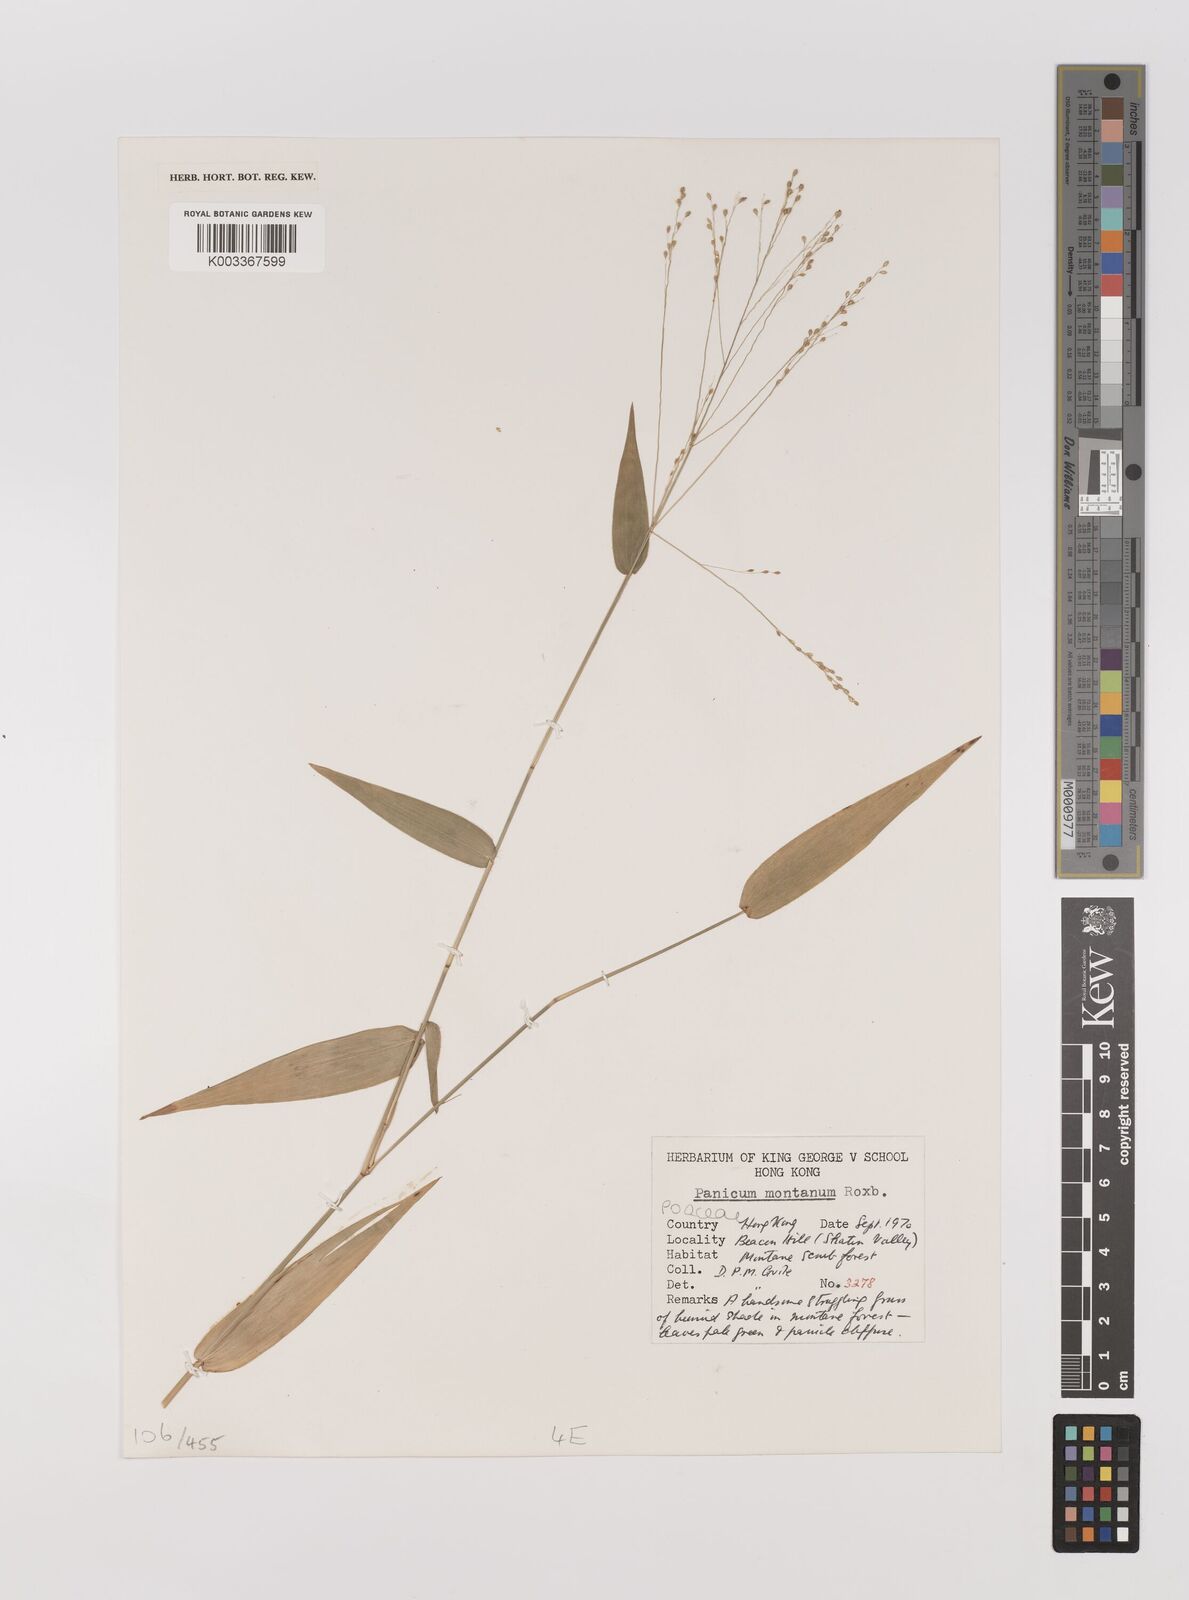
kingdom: Plantae
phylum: Tracheophyta
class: Liliopsida
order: Poales
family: Poaceae
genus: Panicum
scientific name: Panicum notatum
